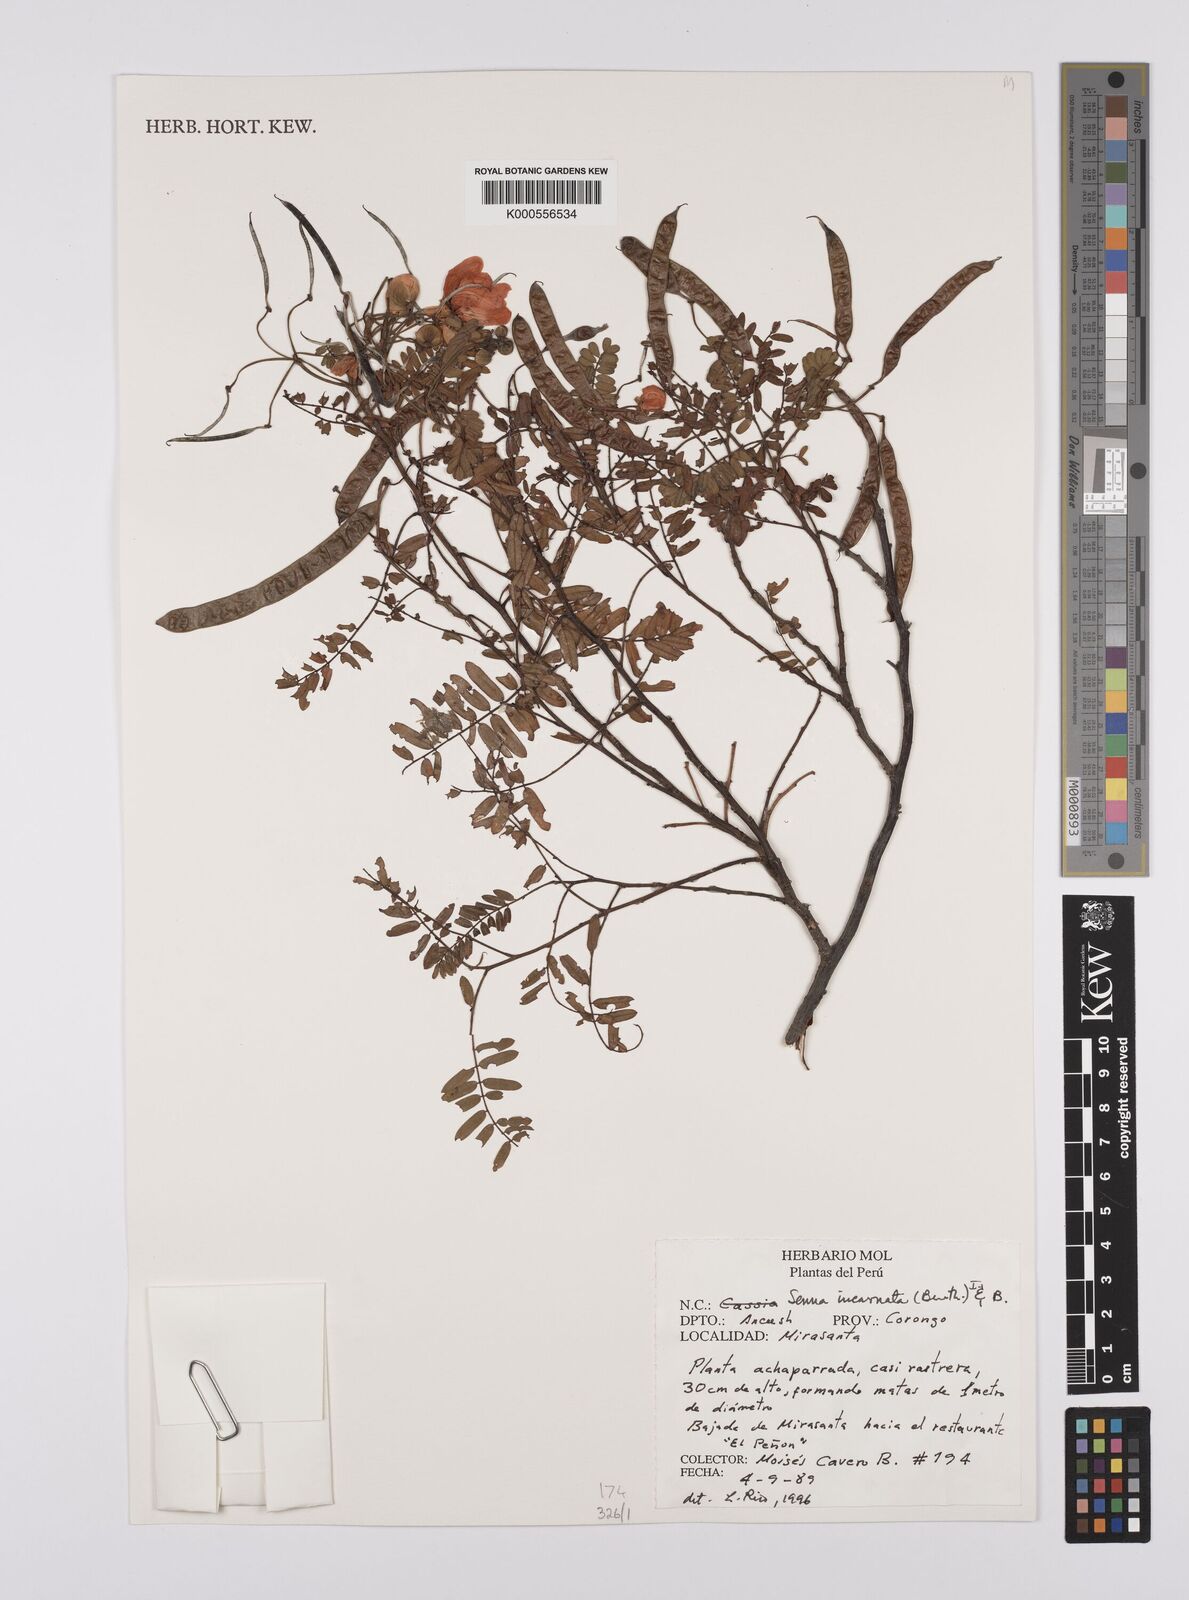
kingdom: Plantae
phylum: Tracheophyta
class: Magnoliopsida
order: Fabales
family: Fabaceae
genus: Senna
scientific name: Senna incarnata
